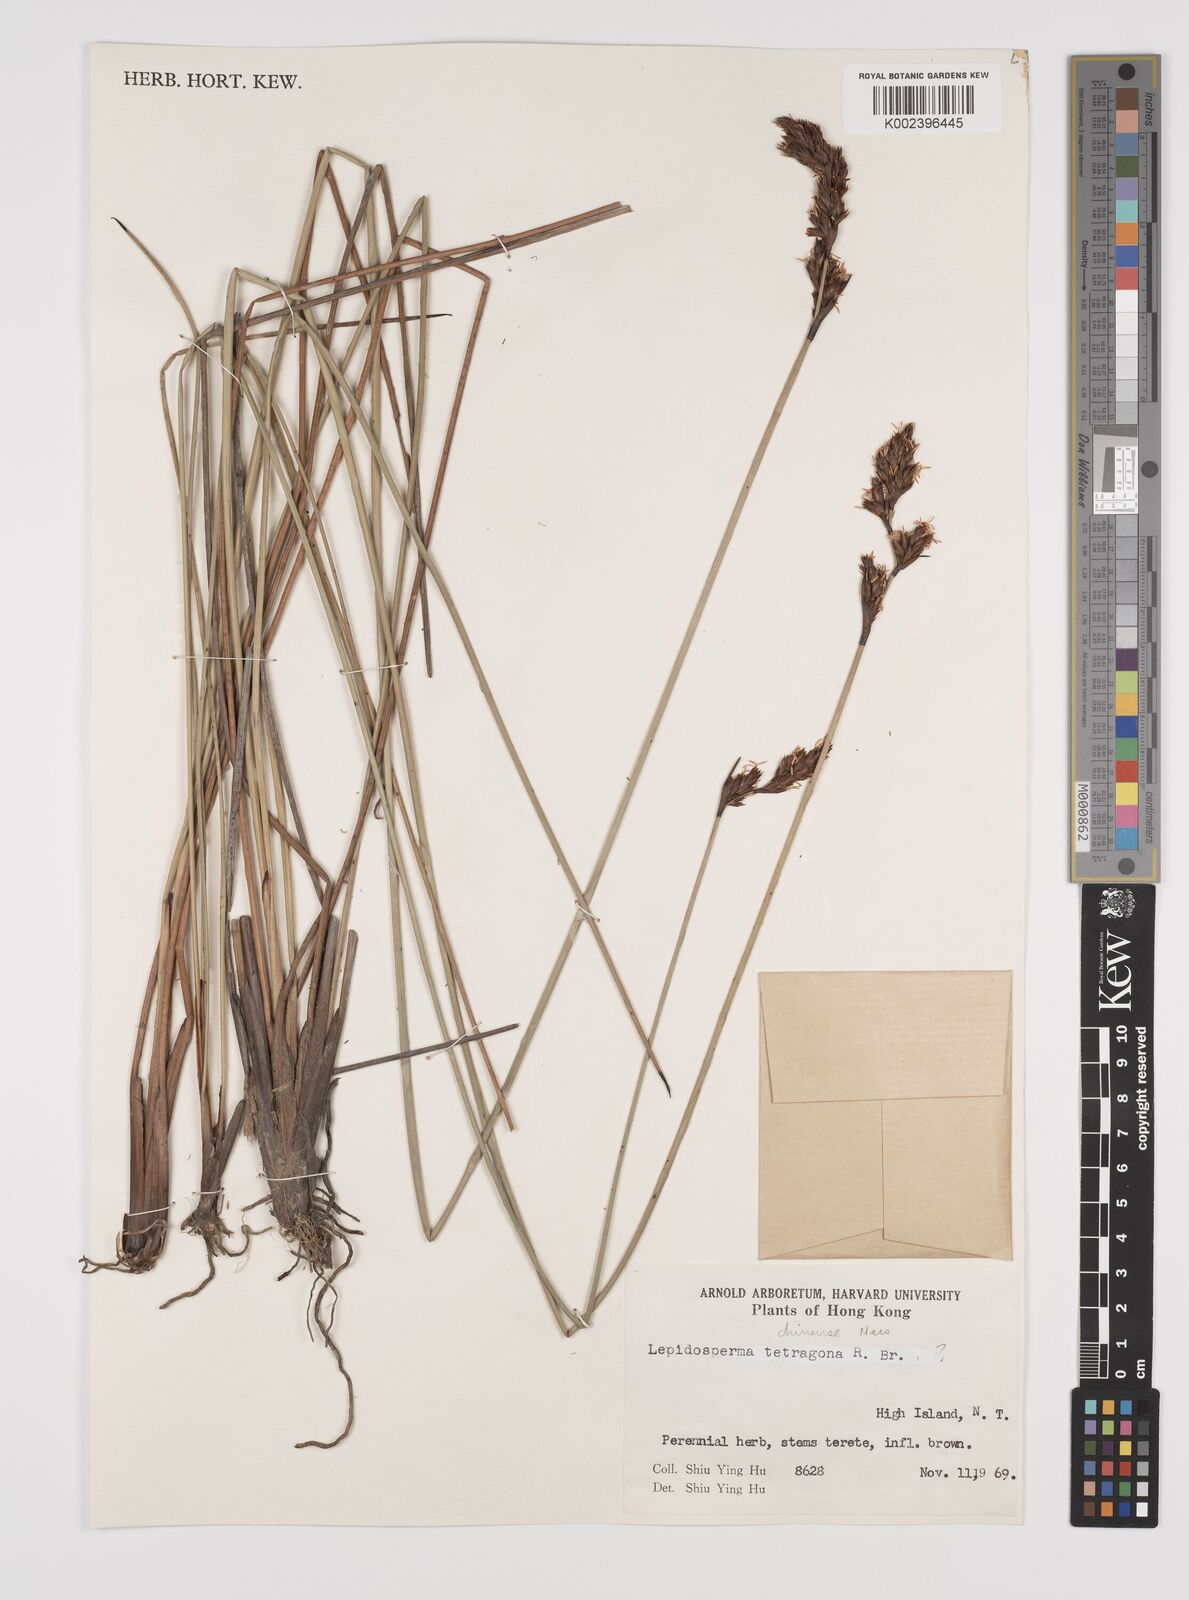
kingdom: Plantae
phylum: Tracheophyta
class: Liliopsida
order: Poales
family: Cyperaceae
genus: Lepidosperma
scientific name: Lepidosperma chinense
